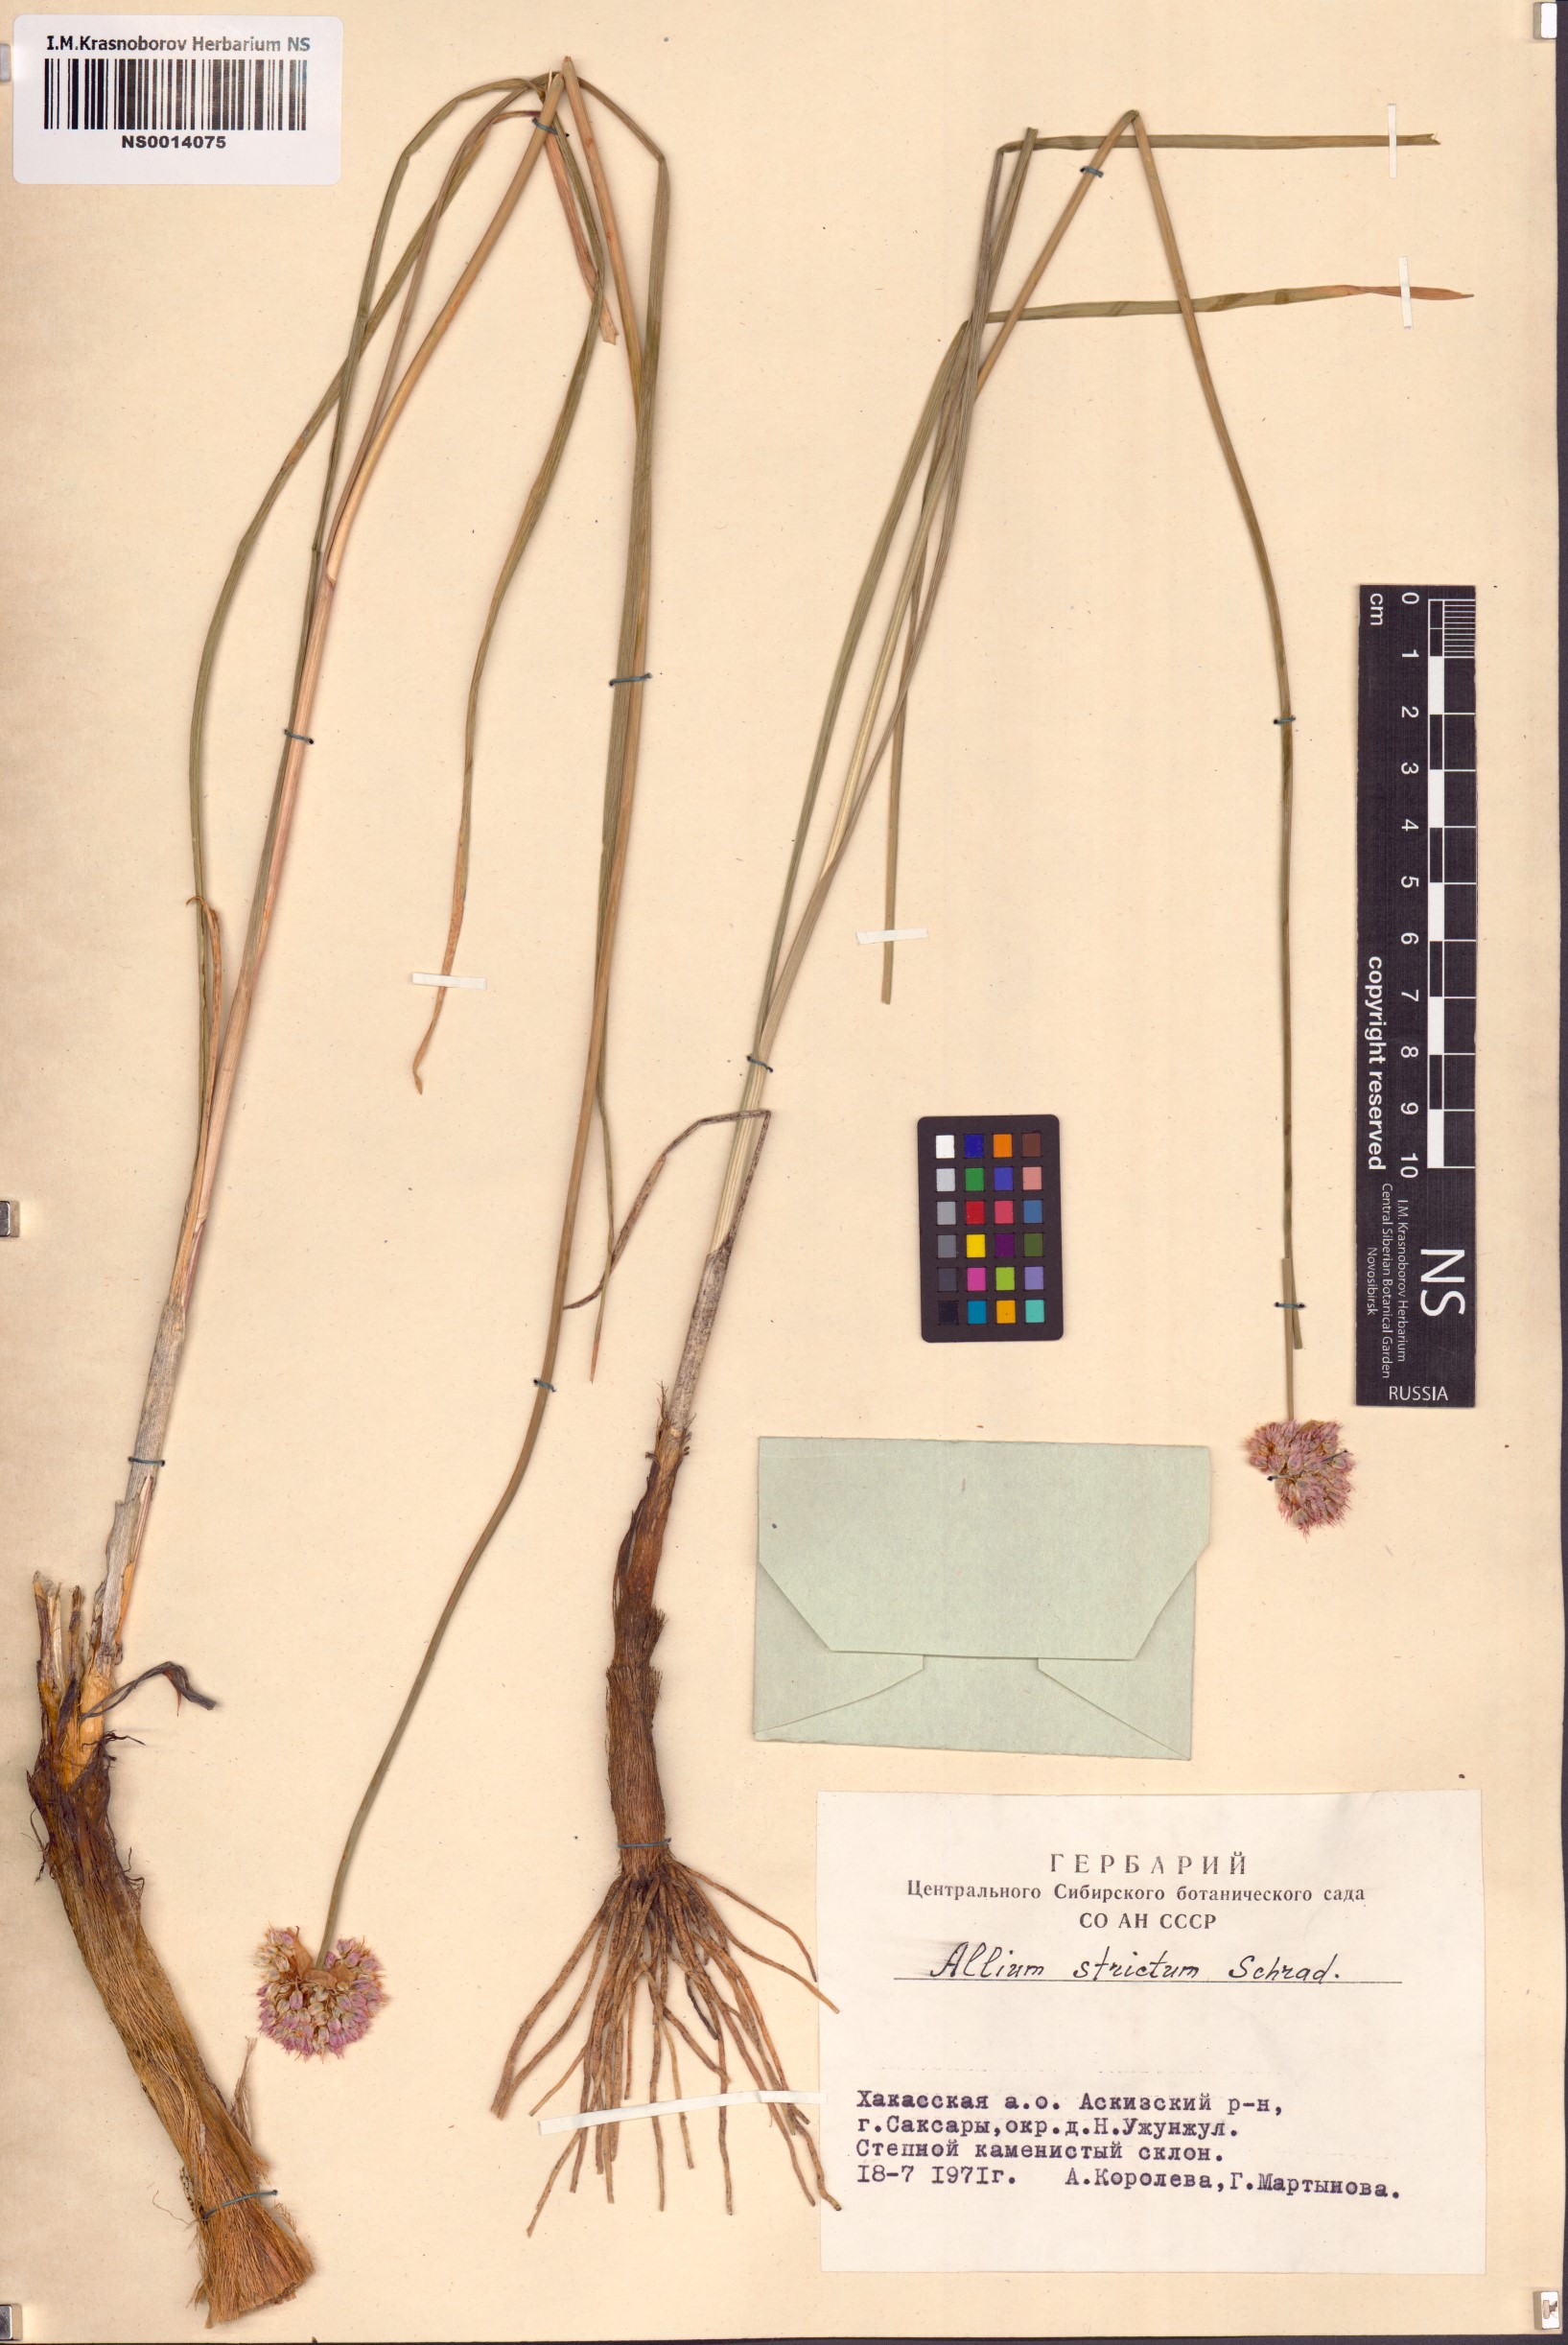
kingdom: Plantae
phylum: Tracheophyta
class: Liliopsida
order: Asparagales
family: Amaryllidaceae
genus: Allium
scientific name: Allium strictum
